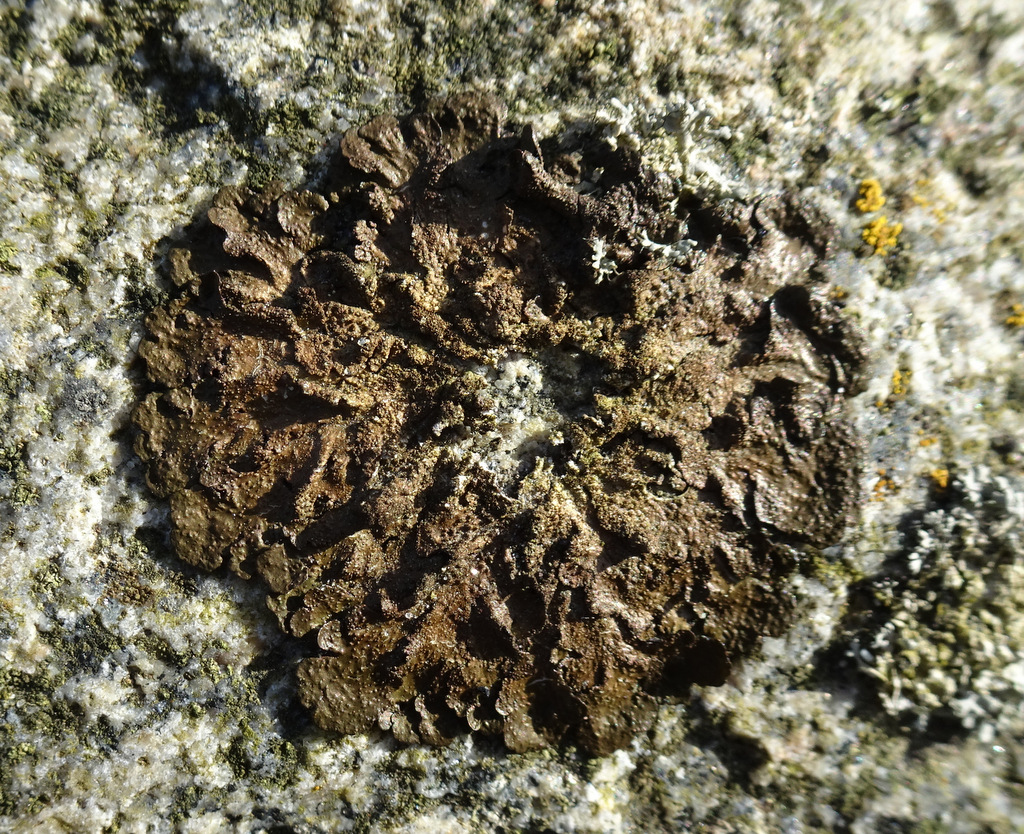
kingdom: Fungi
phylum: Ascomycota
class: Lecanoromycetes
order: Lecanorales
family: Parmeliaceae
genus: Melanelixia
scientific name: Melanelixia subaurifera
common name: guldpudret skållav
